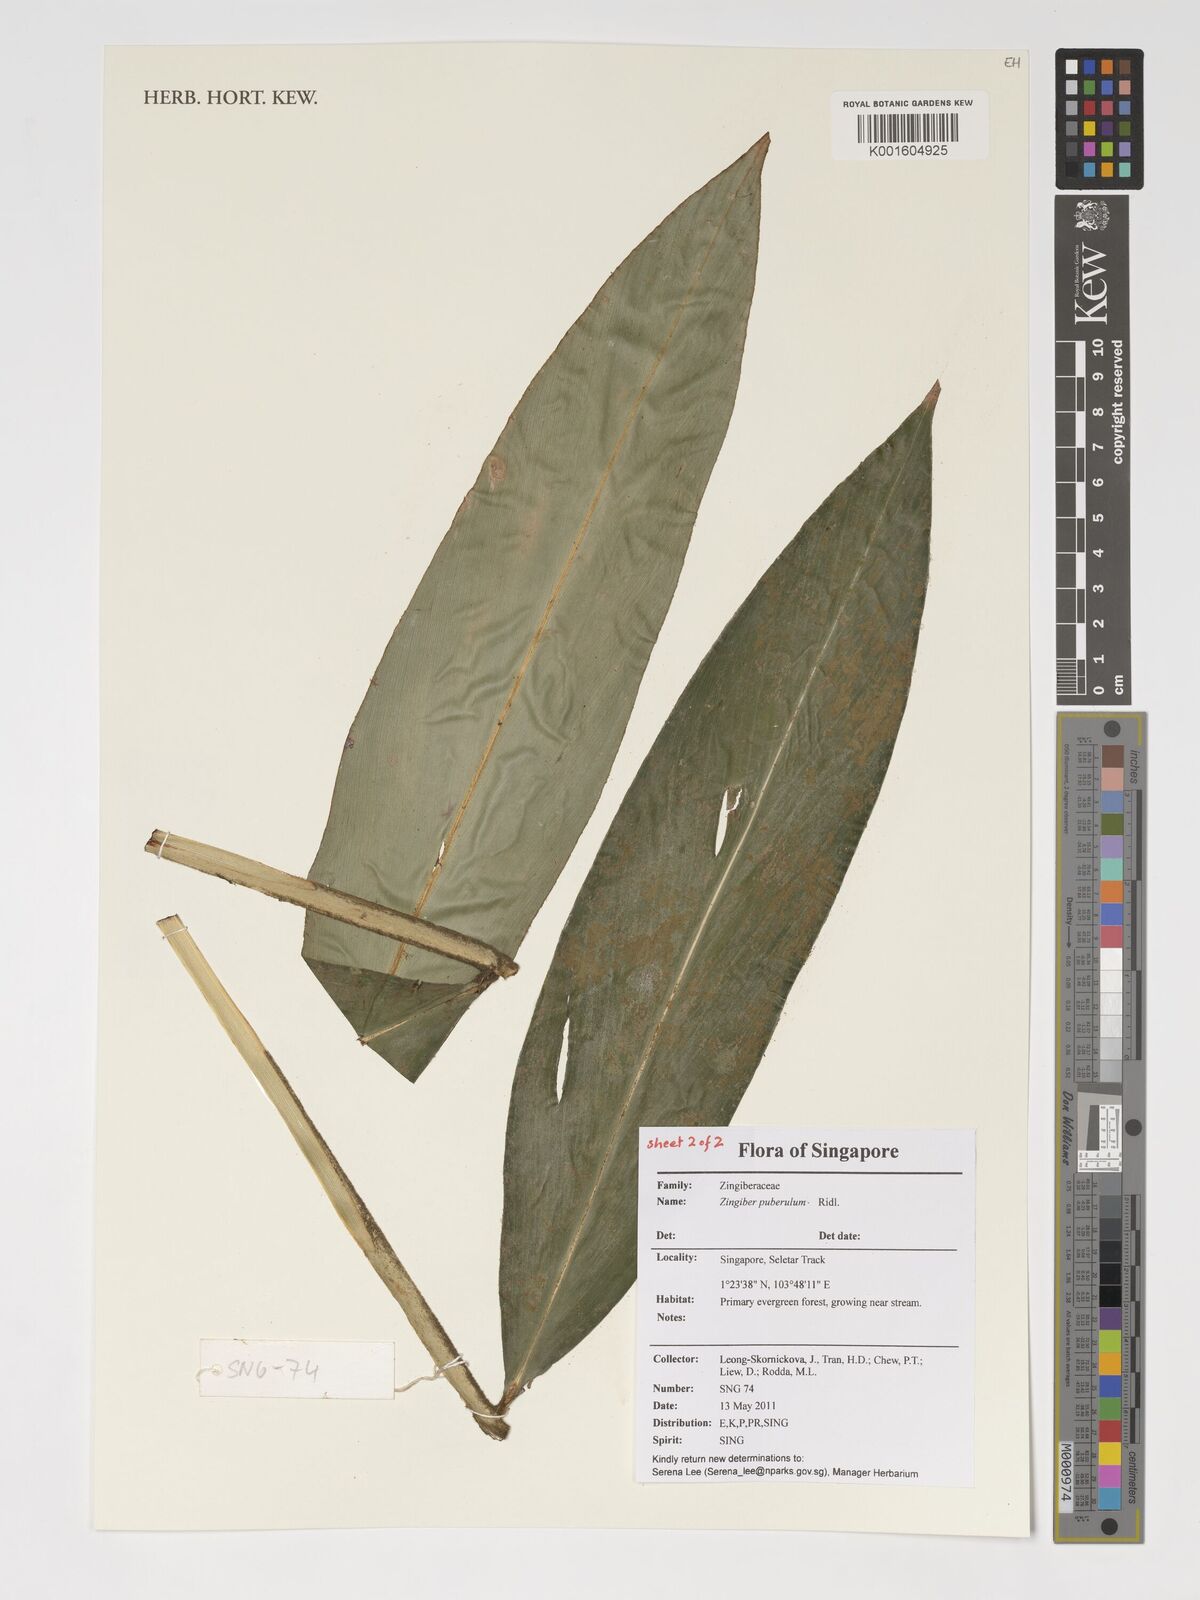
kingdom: Plantae
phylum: Tracheophyta
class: Liliopsida
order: Zingiberales
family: Zingiberaceae
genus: Zingiber
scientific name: Zingiber puberulum
